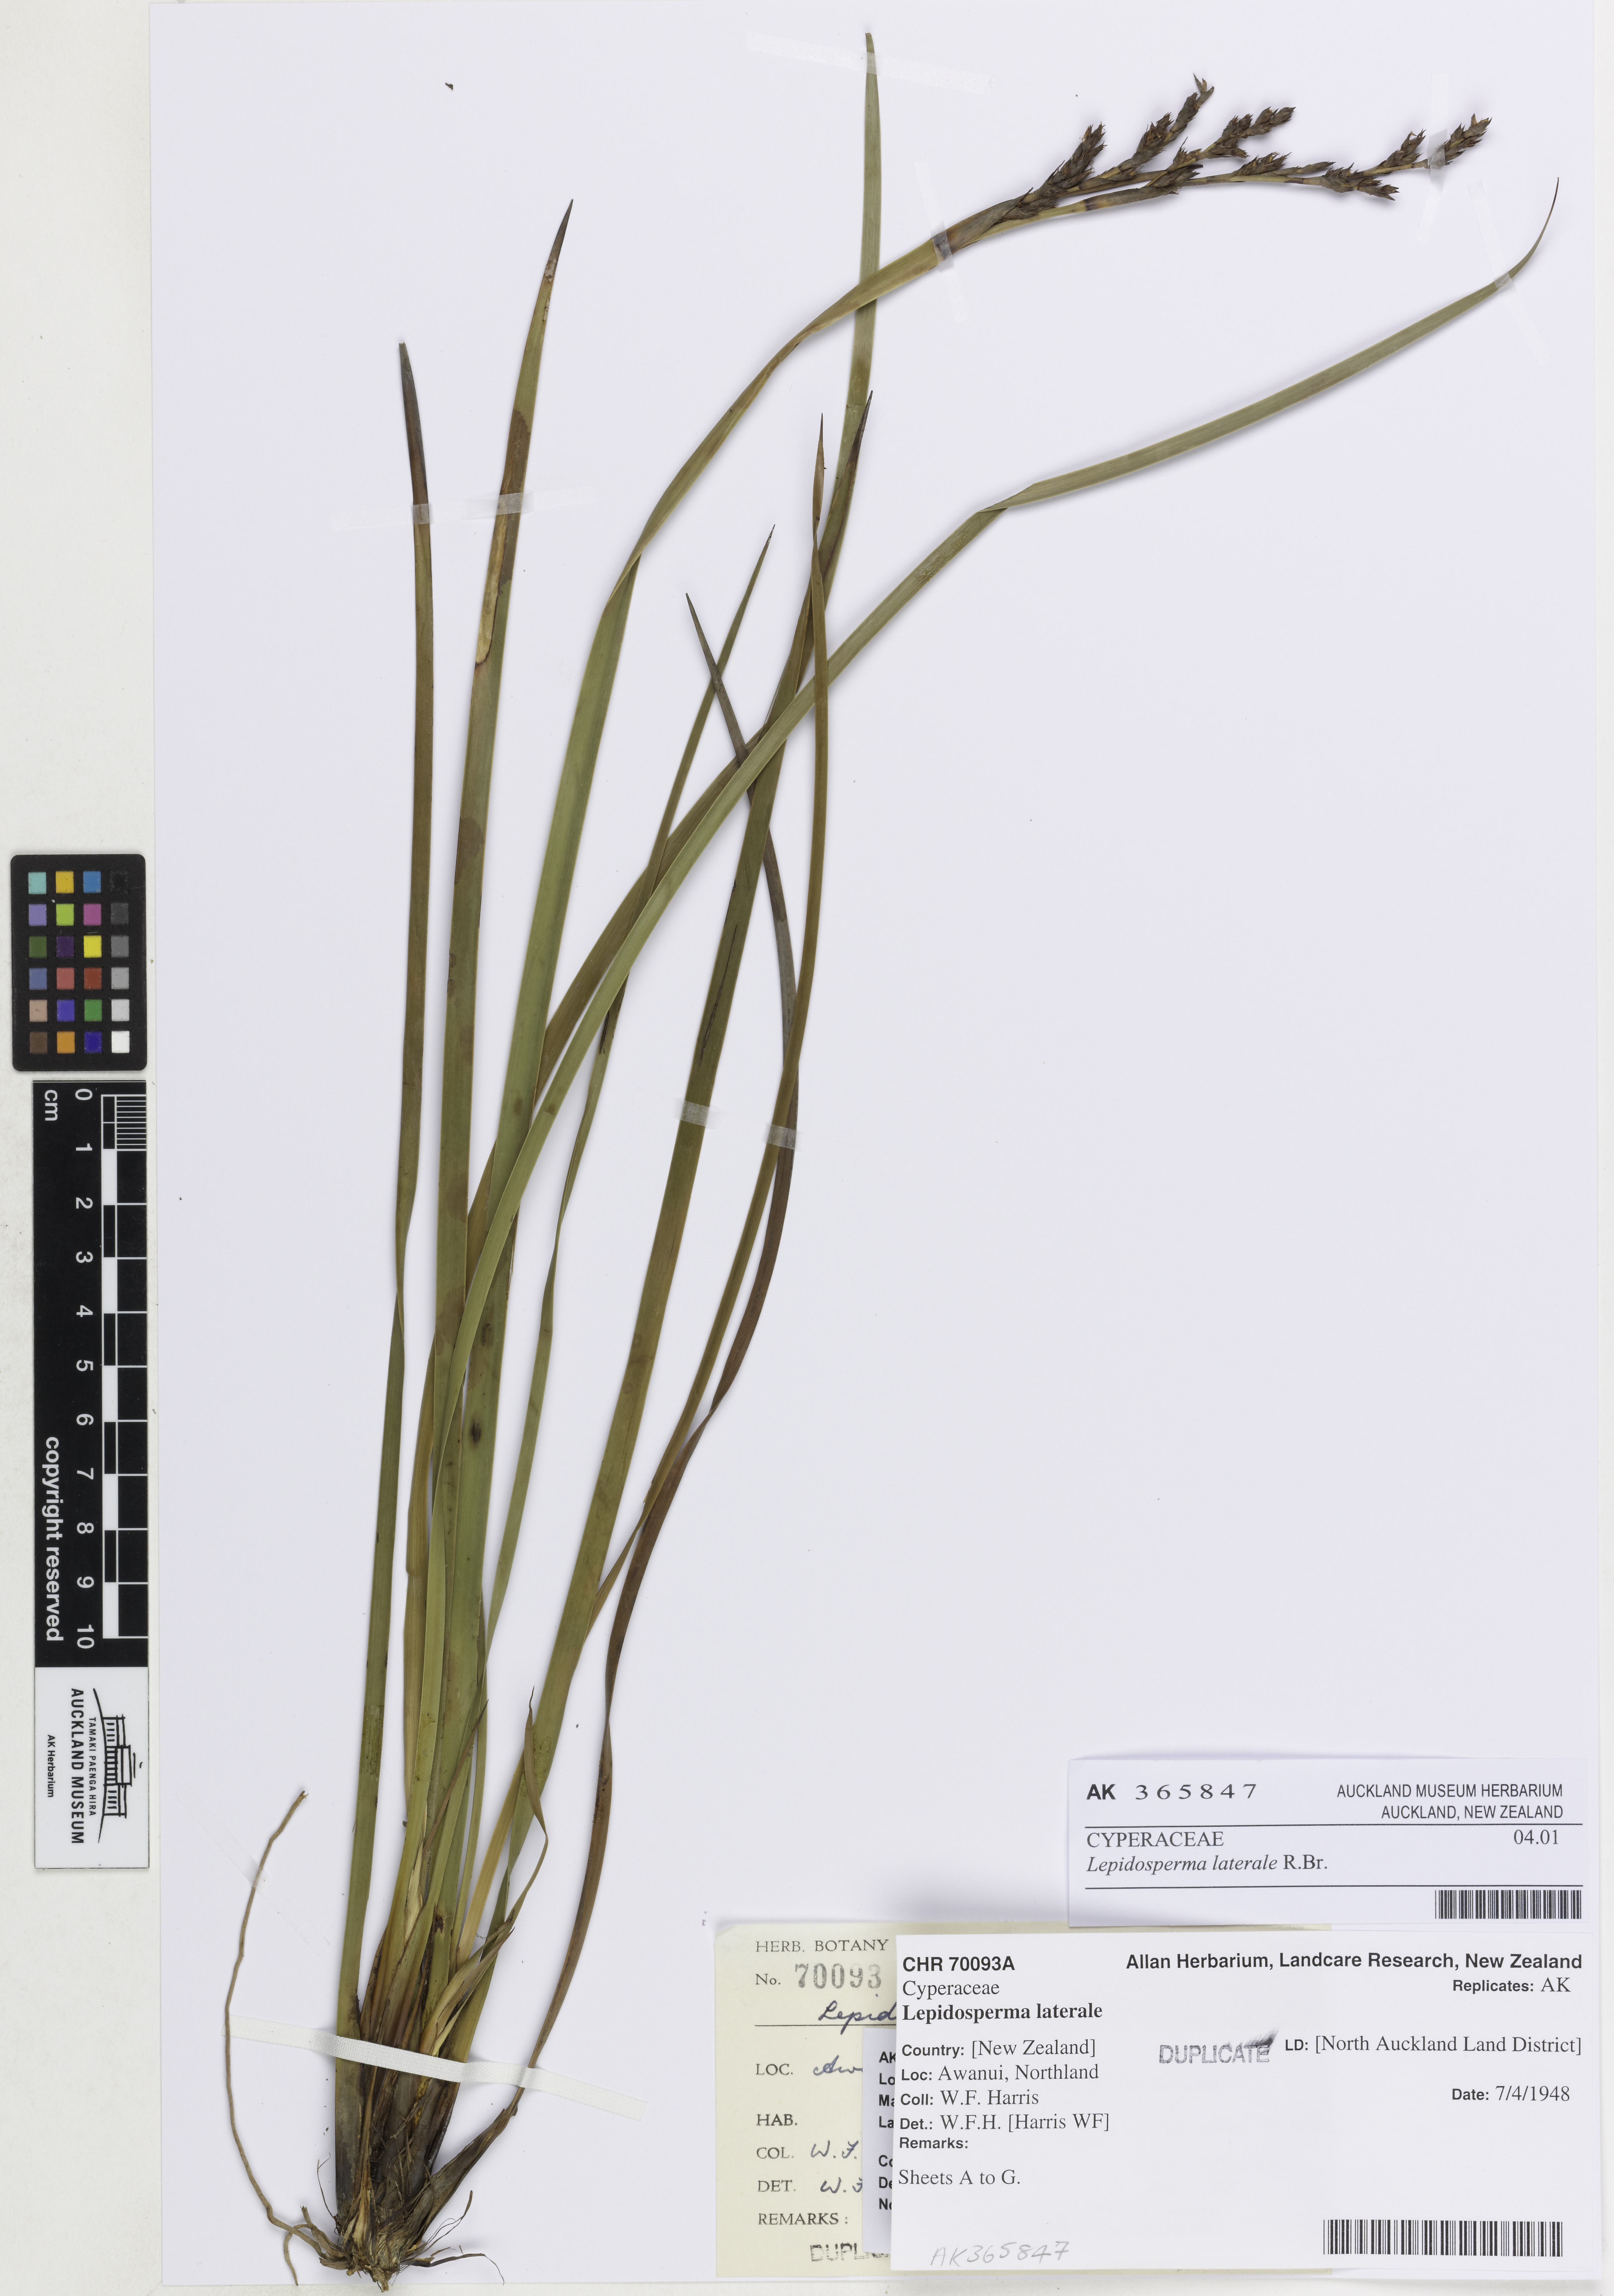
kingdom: Plantae
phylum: Tracheophyta
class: Liliopsida
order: Poales
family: Cyperaceae
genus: Lepidosperma
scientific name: Lepidosperma laterale
